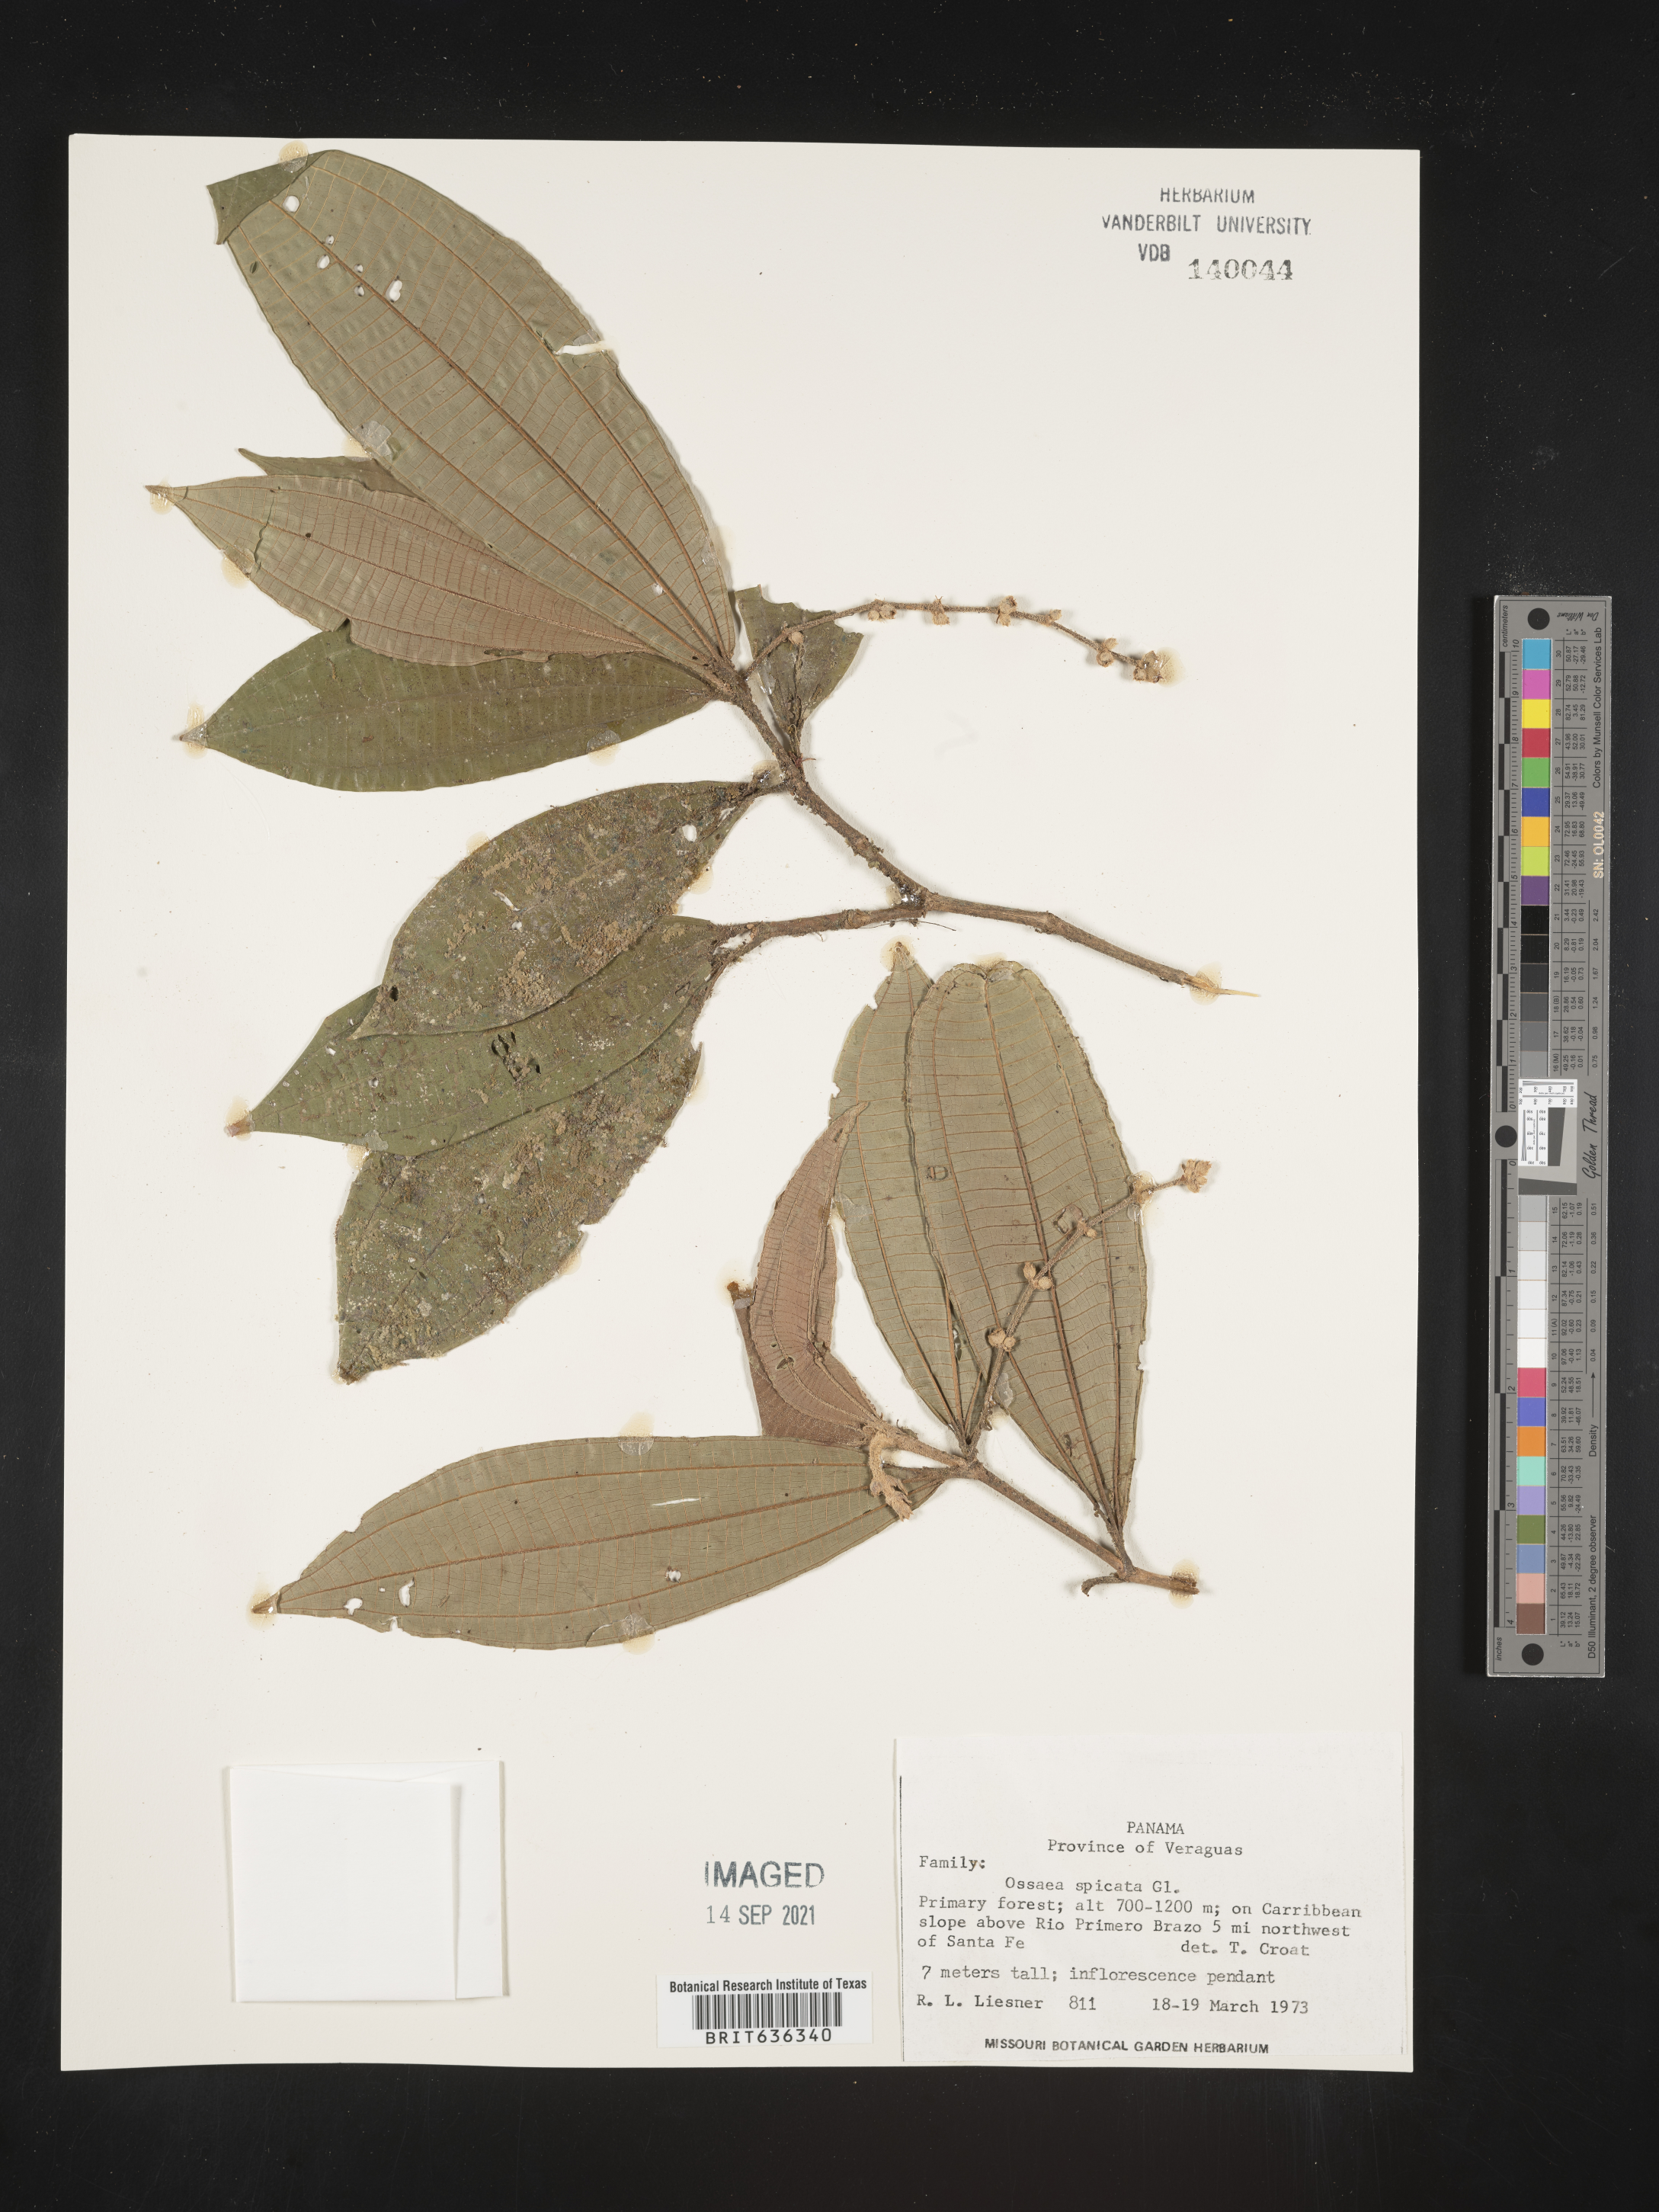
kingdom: Plantae
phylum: Tracheophyta
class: Magnoliopsida
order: Myrtales
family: Melastomataceae
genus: Ossaea
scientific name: Ossaea
